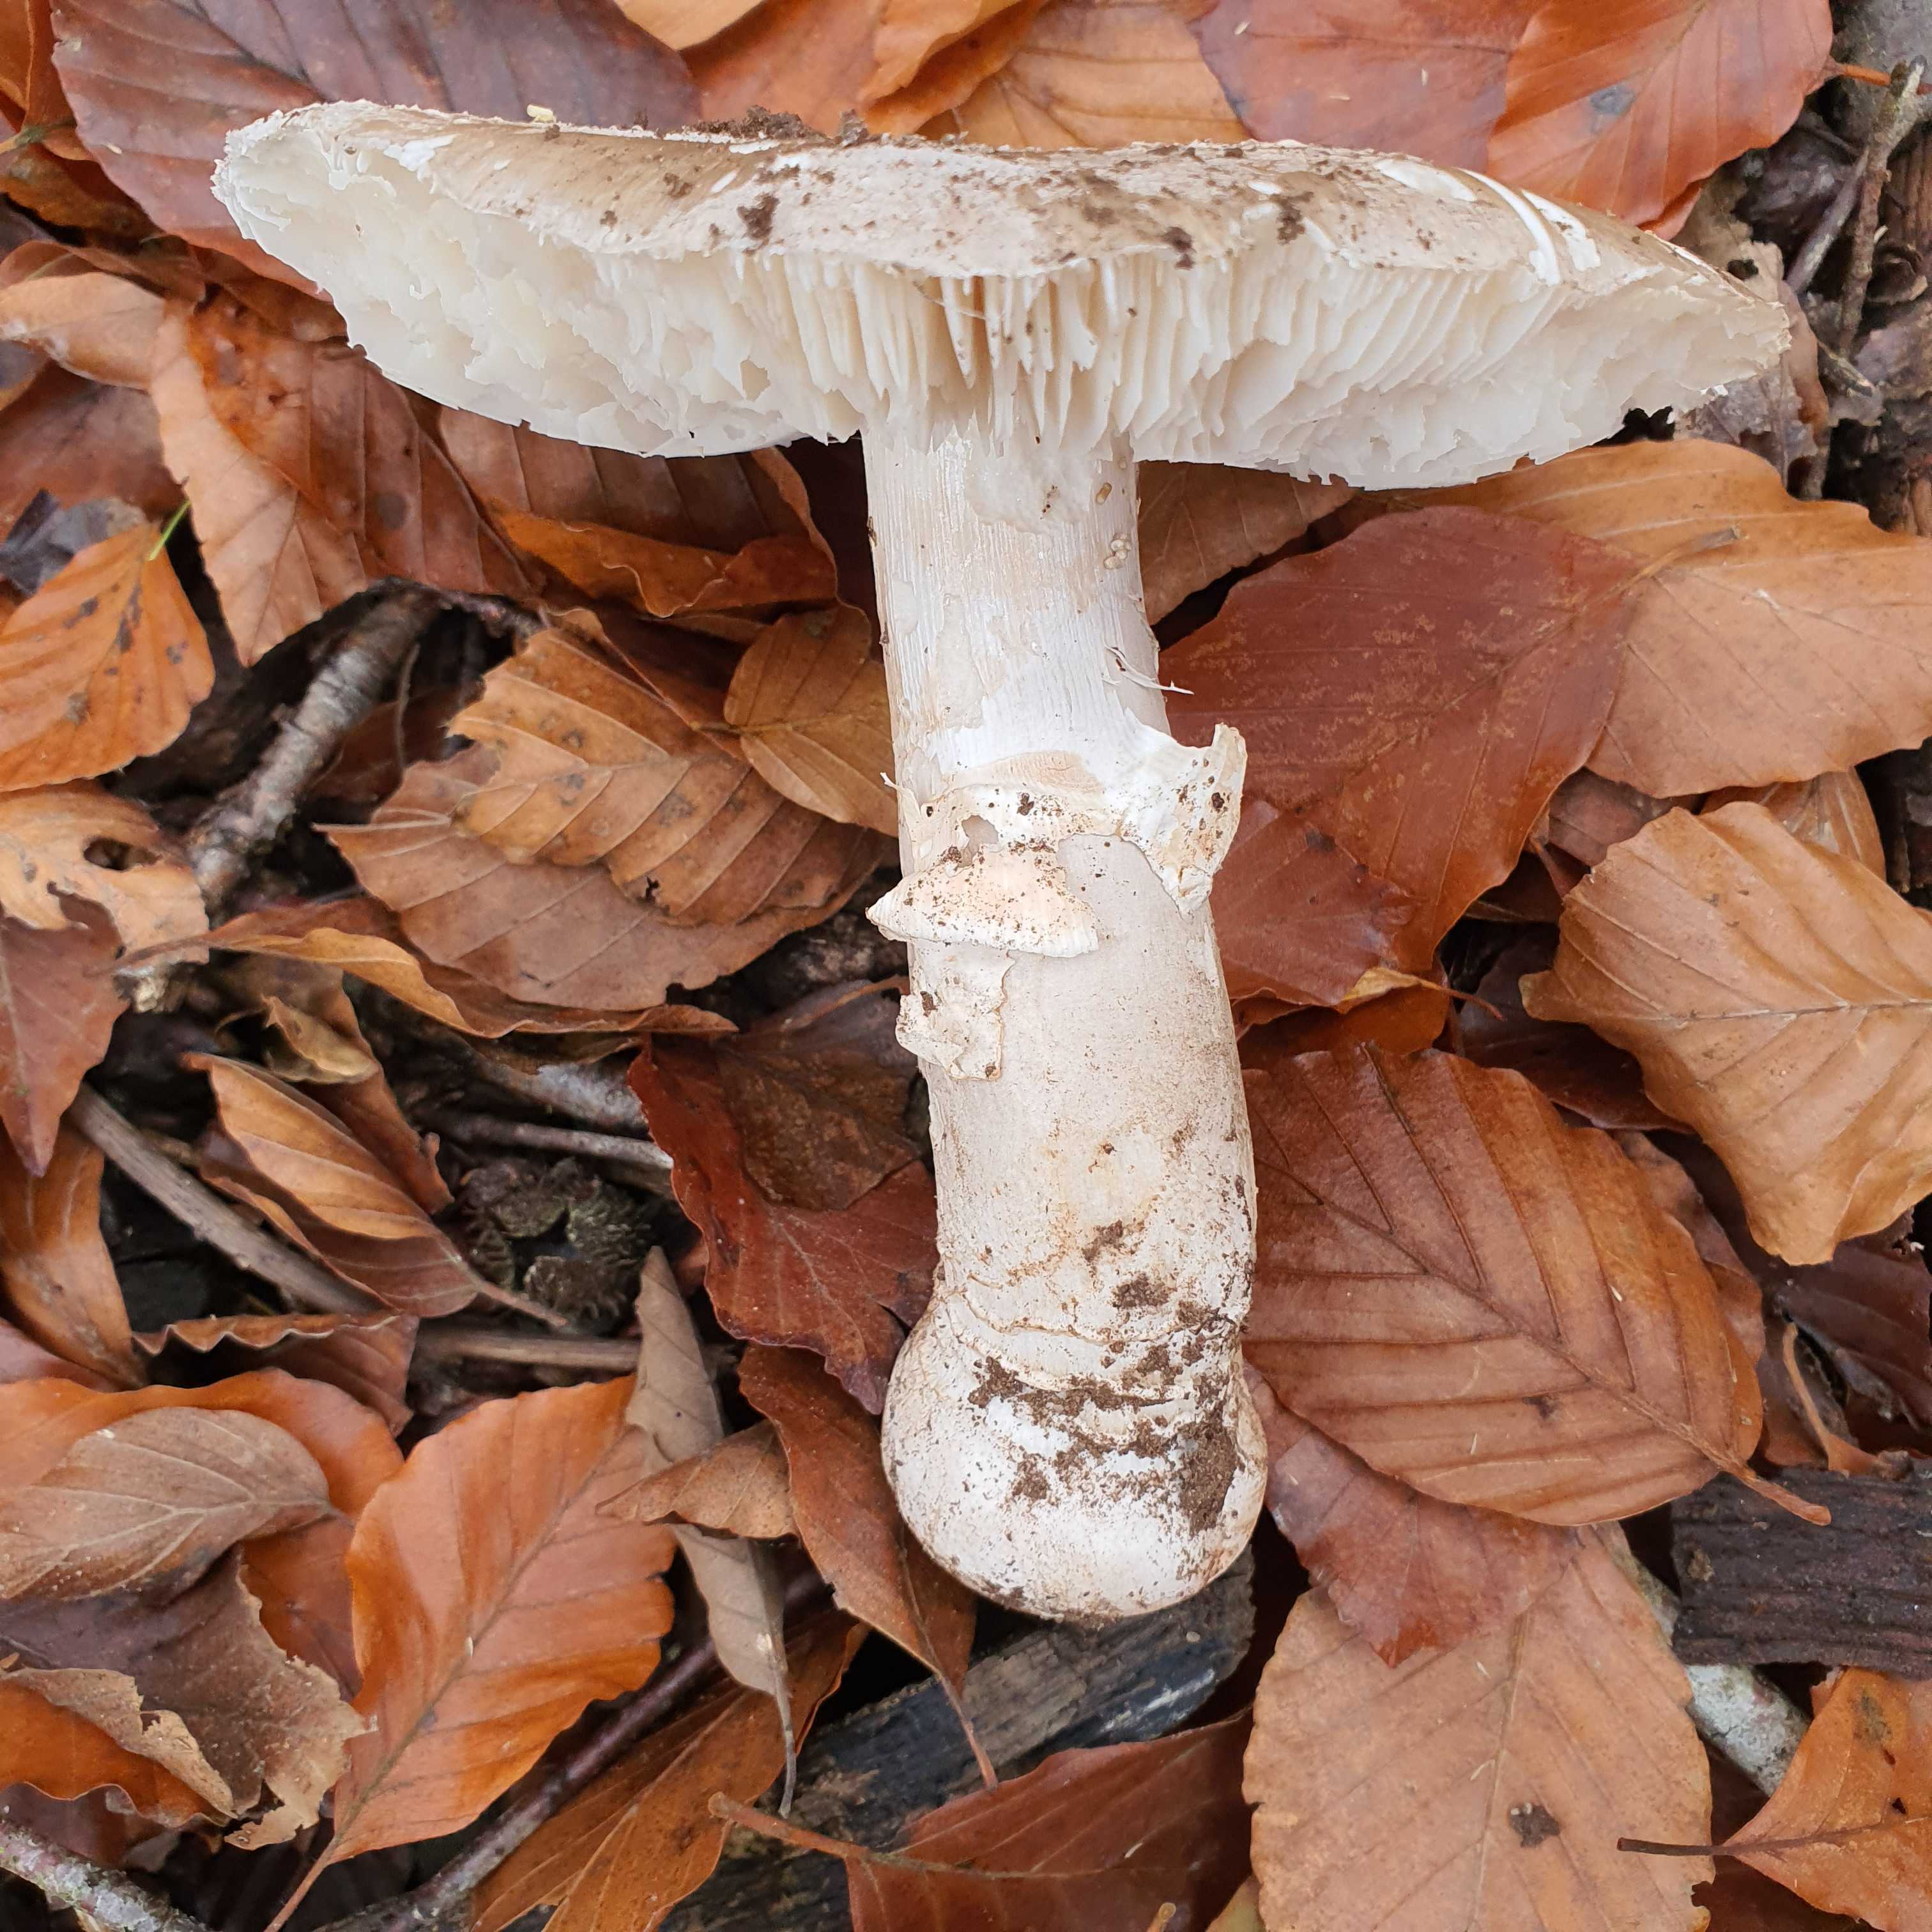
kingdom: Fungi
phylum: Basidiomycota
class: Agaricomycetes
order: Agaricales
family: Amanitaceae
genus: Amanita
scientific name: Amanita
